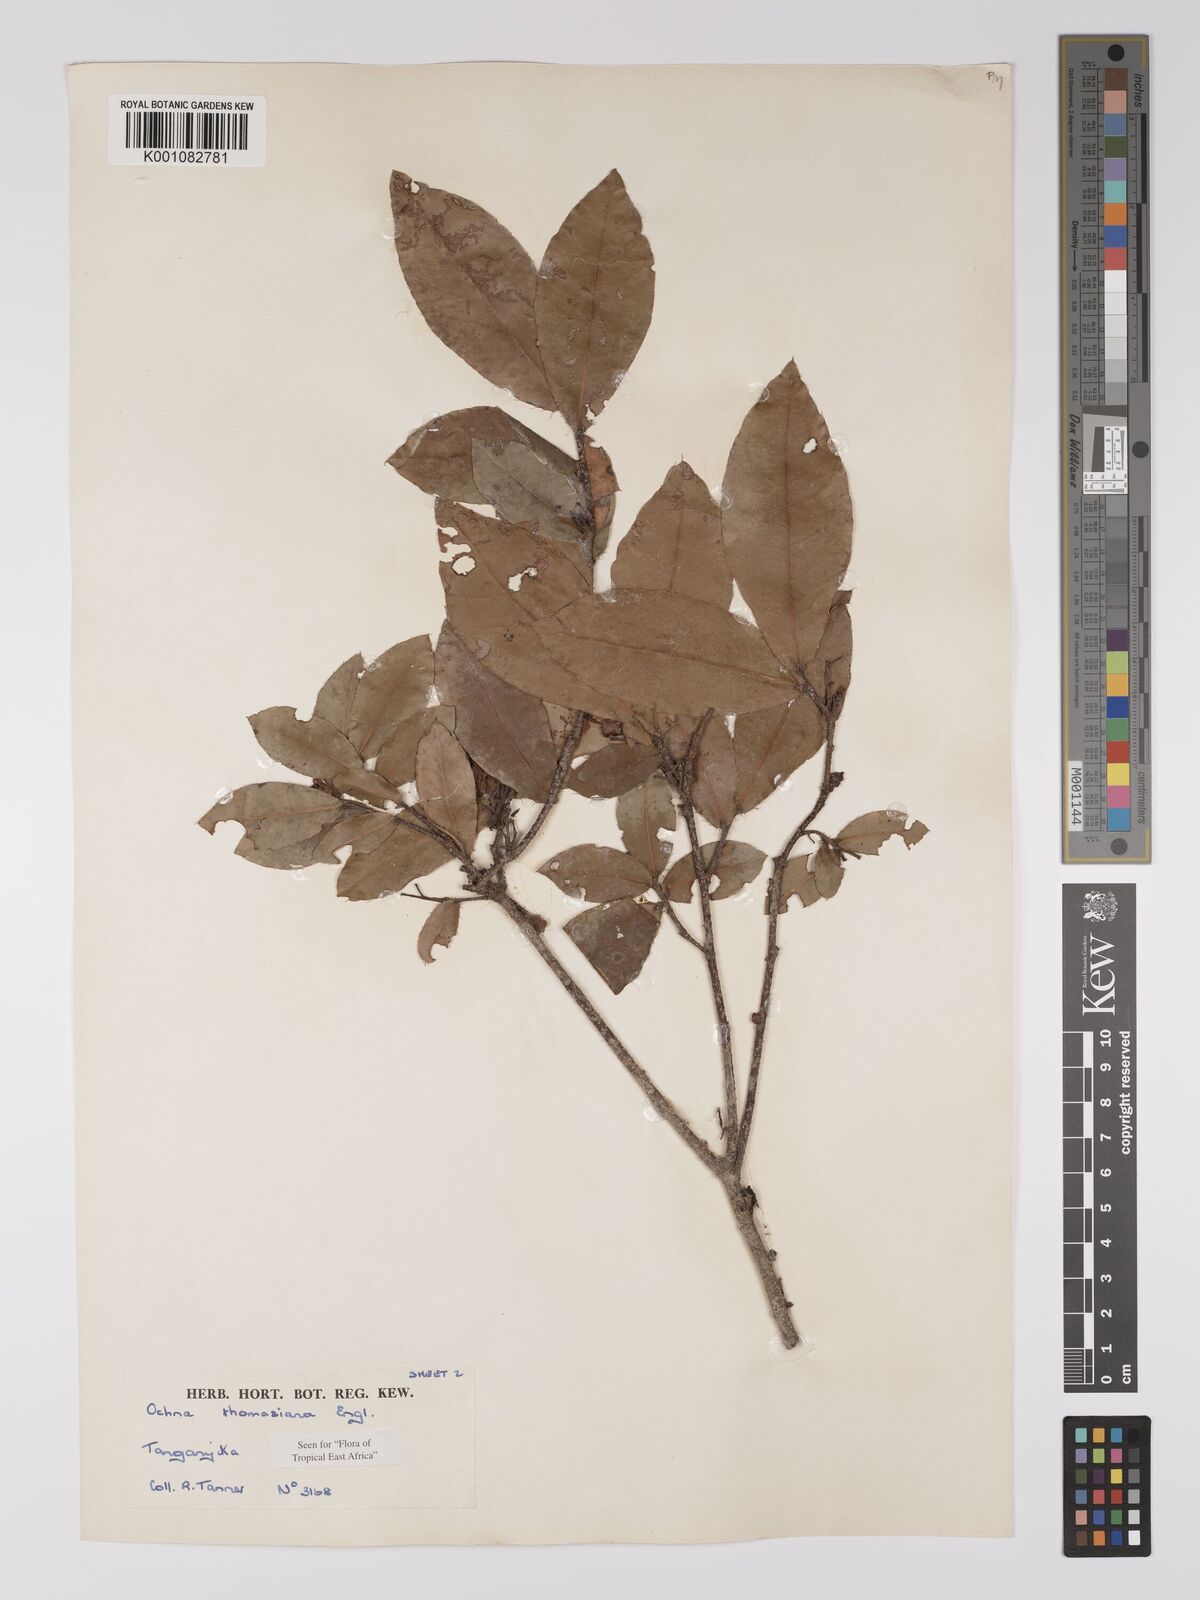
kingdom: Plantae
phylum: Tracheophyta
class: Magnoliopsida
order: Malpighiales
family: Ochnaceae
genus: Ochna
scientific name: Ochna thomasiana
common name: Thomas' bird's-eye bush
